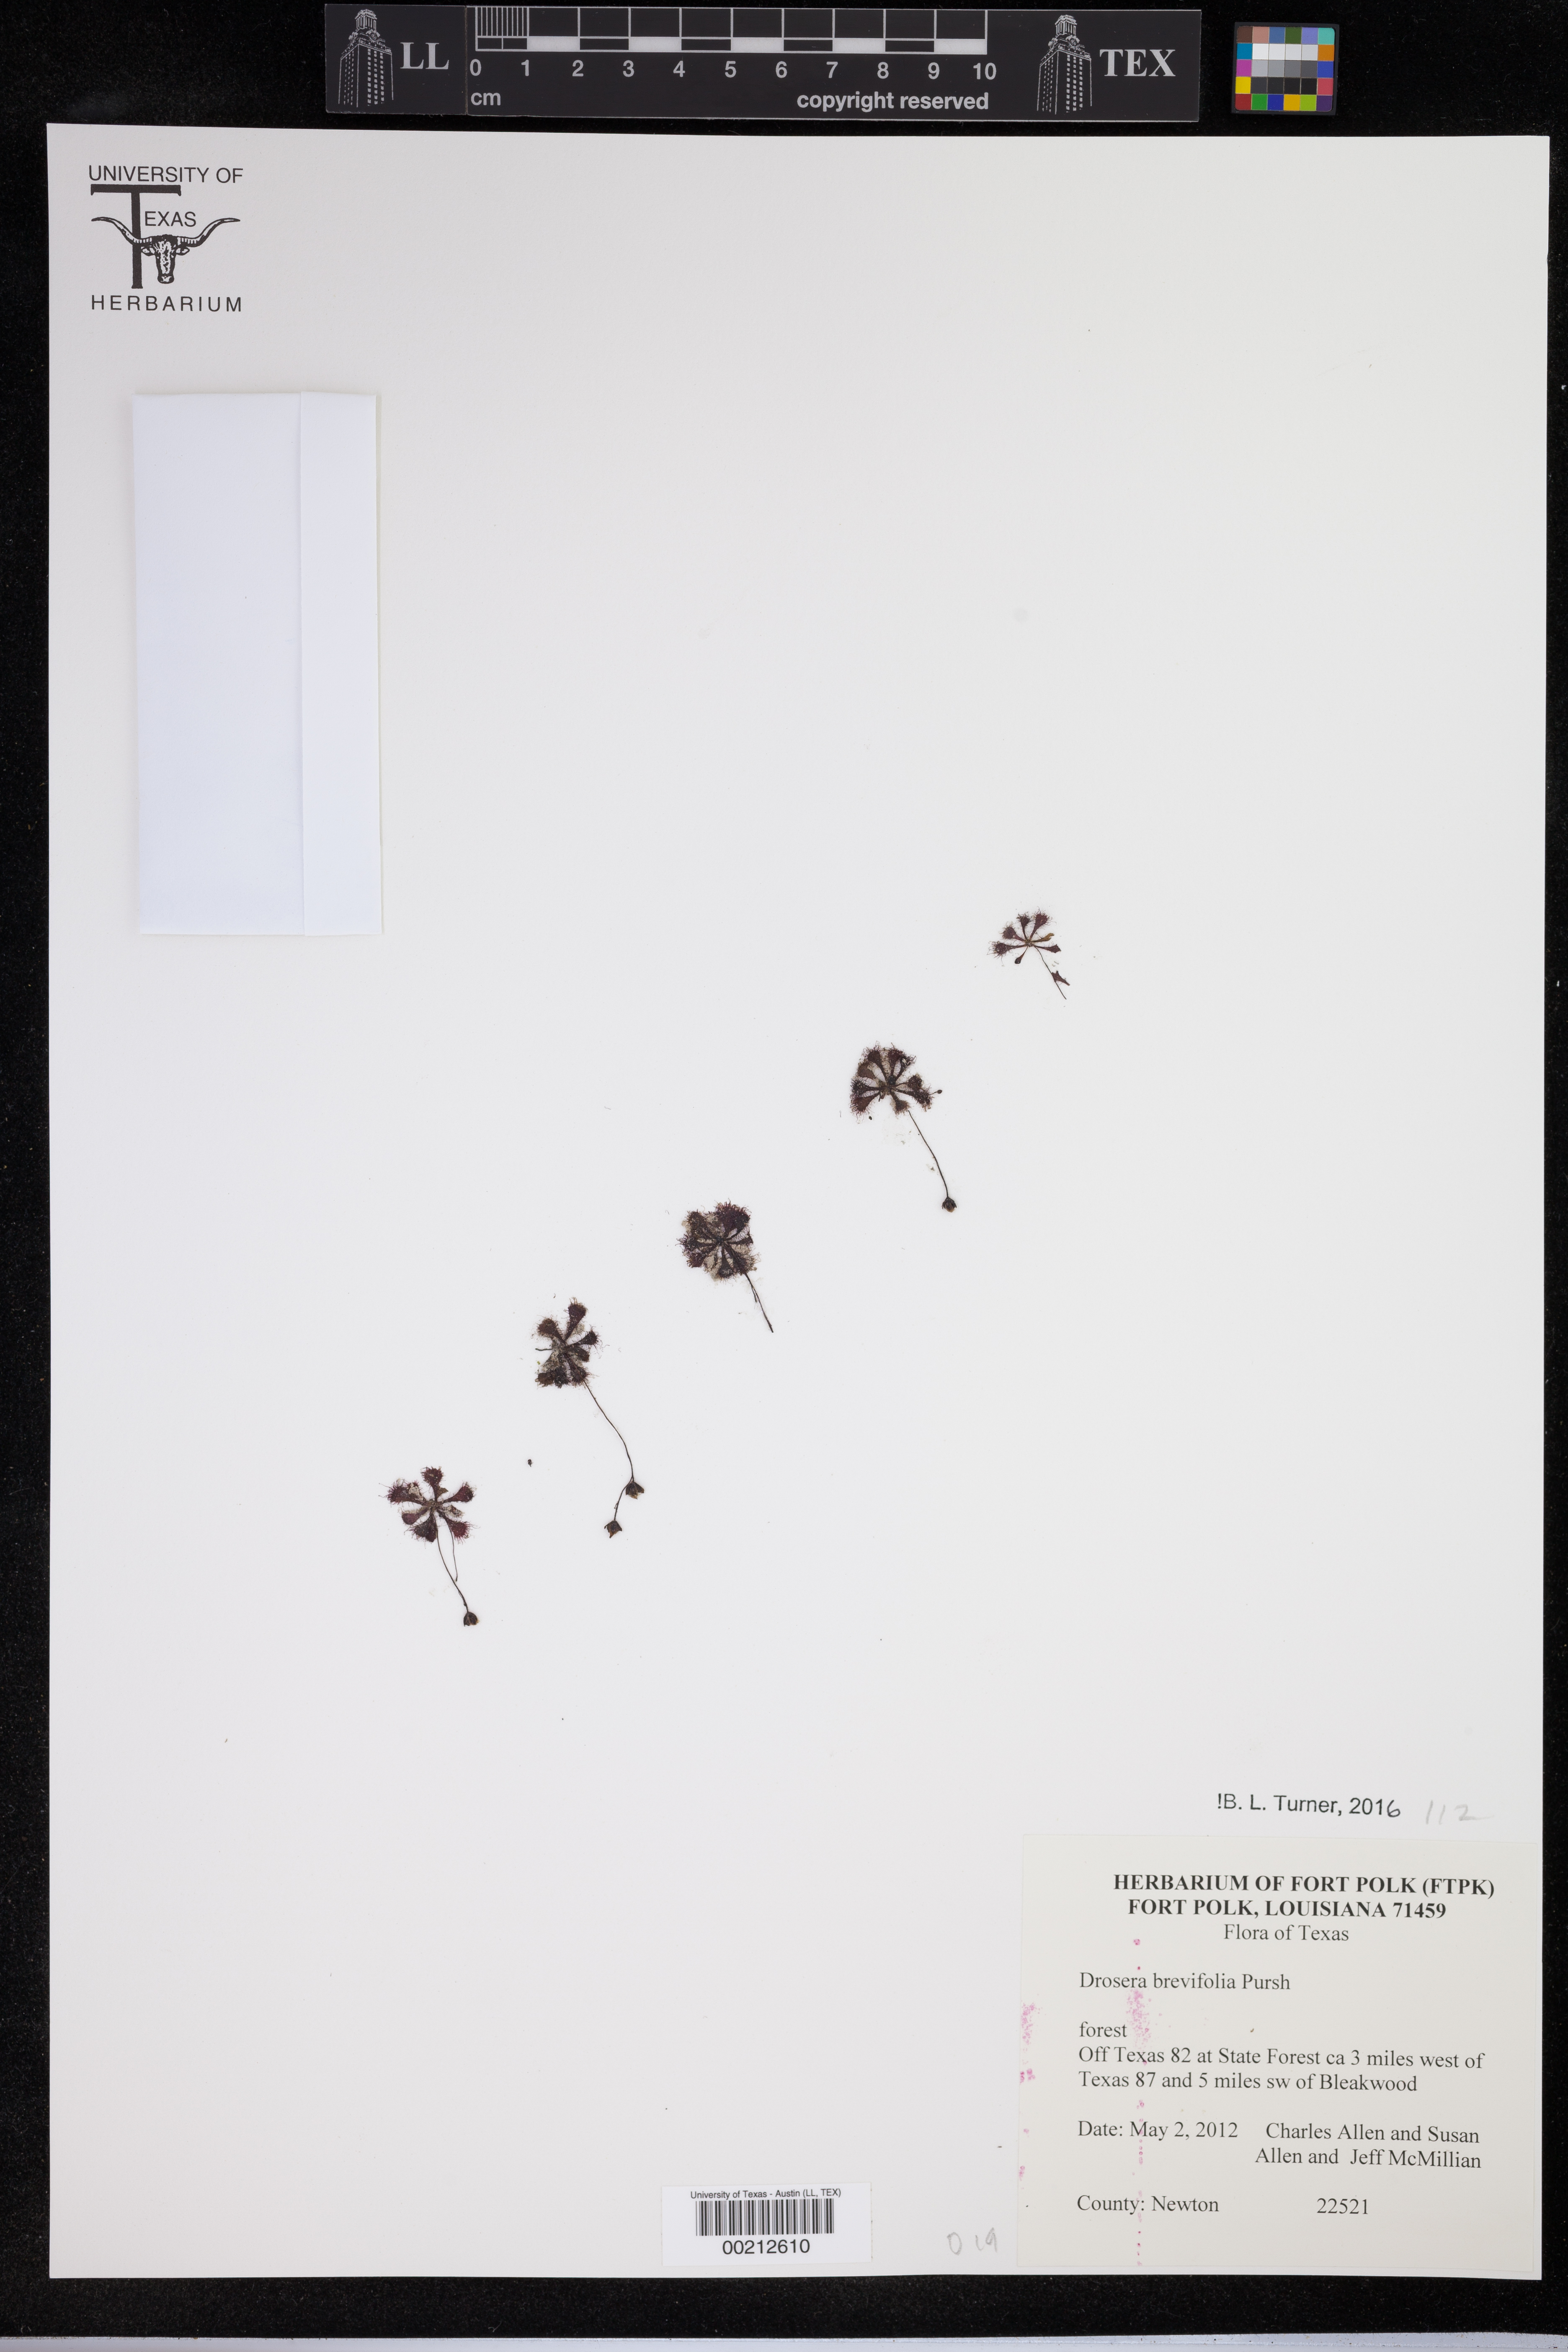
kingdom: Plantae
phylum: Tracheophyta
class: Liliopsida
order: Poales
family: Poaceae
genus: Phalaris
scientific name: Phalaris aquatica
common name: Bulbous canary-grass
